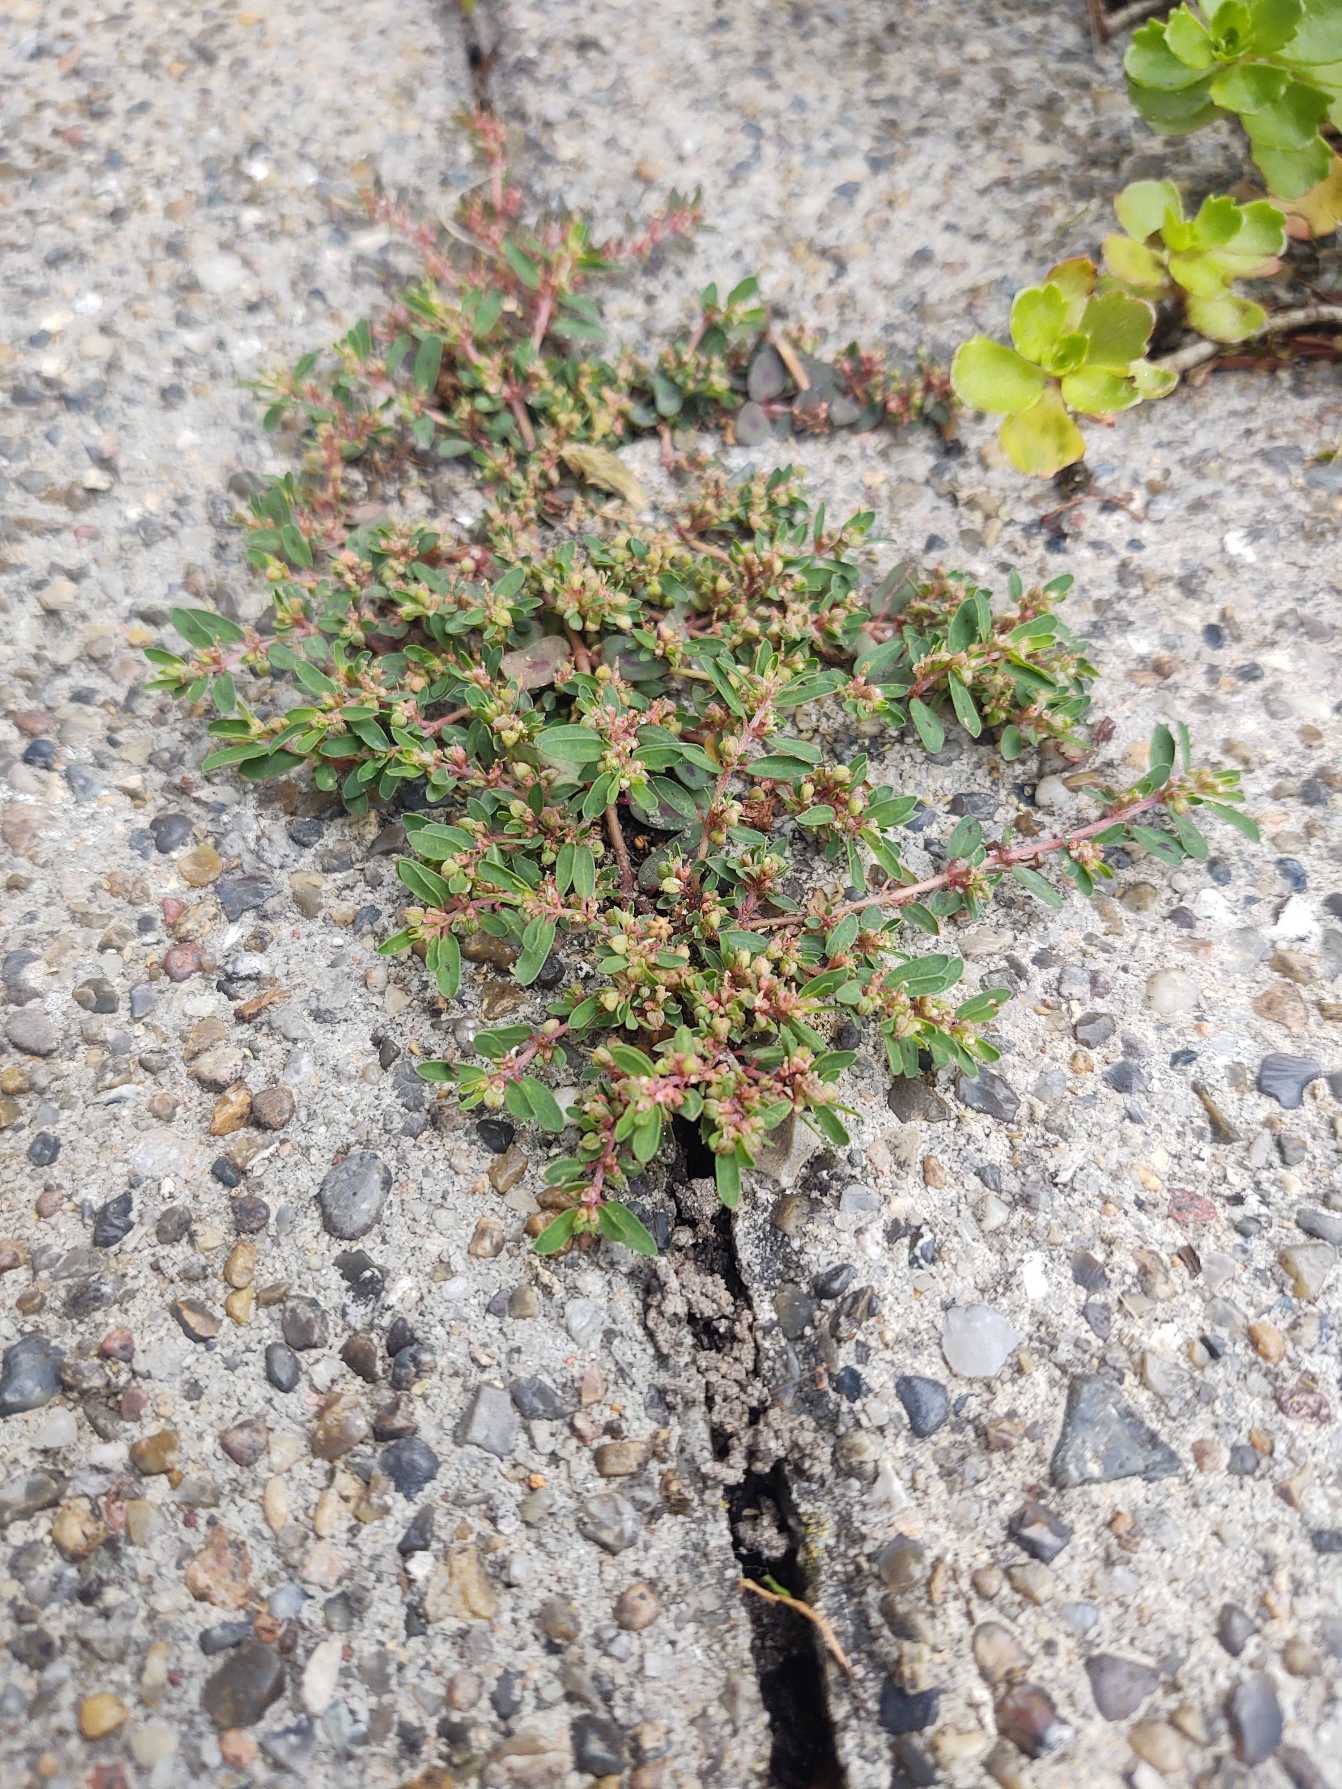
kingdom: Plantae
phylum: Tracheophyta
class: Magnoliopsida
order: Malpighiales
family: Euphorbiaceae
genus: Euphorbia
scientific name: Euphorbia maculata
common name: Plet-vortemælk
